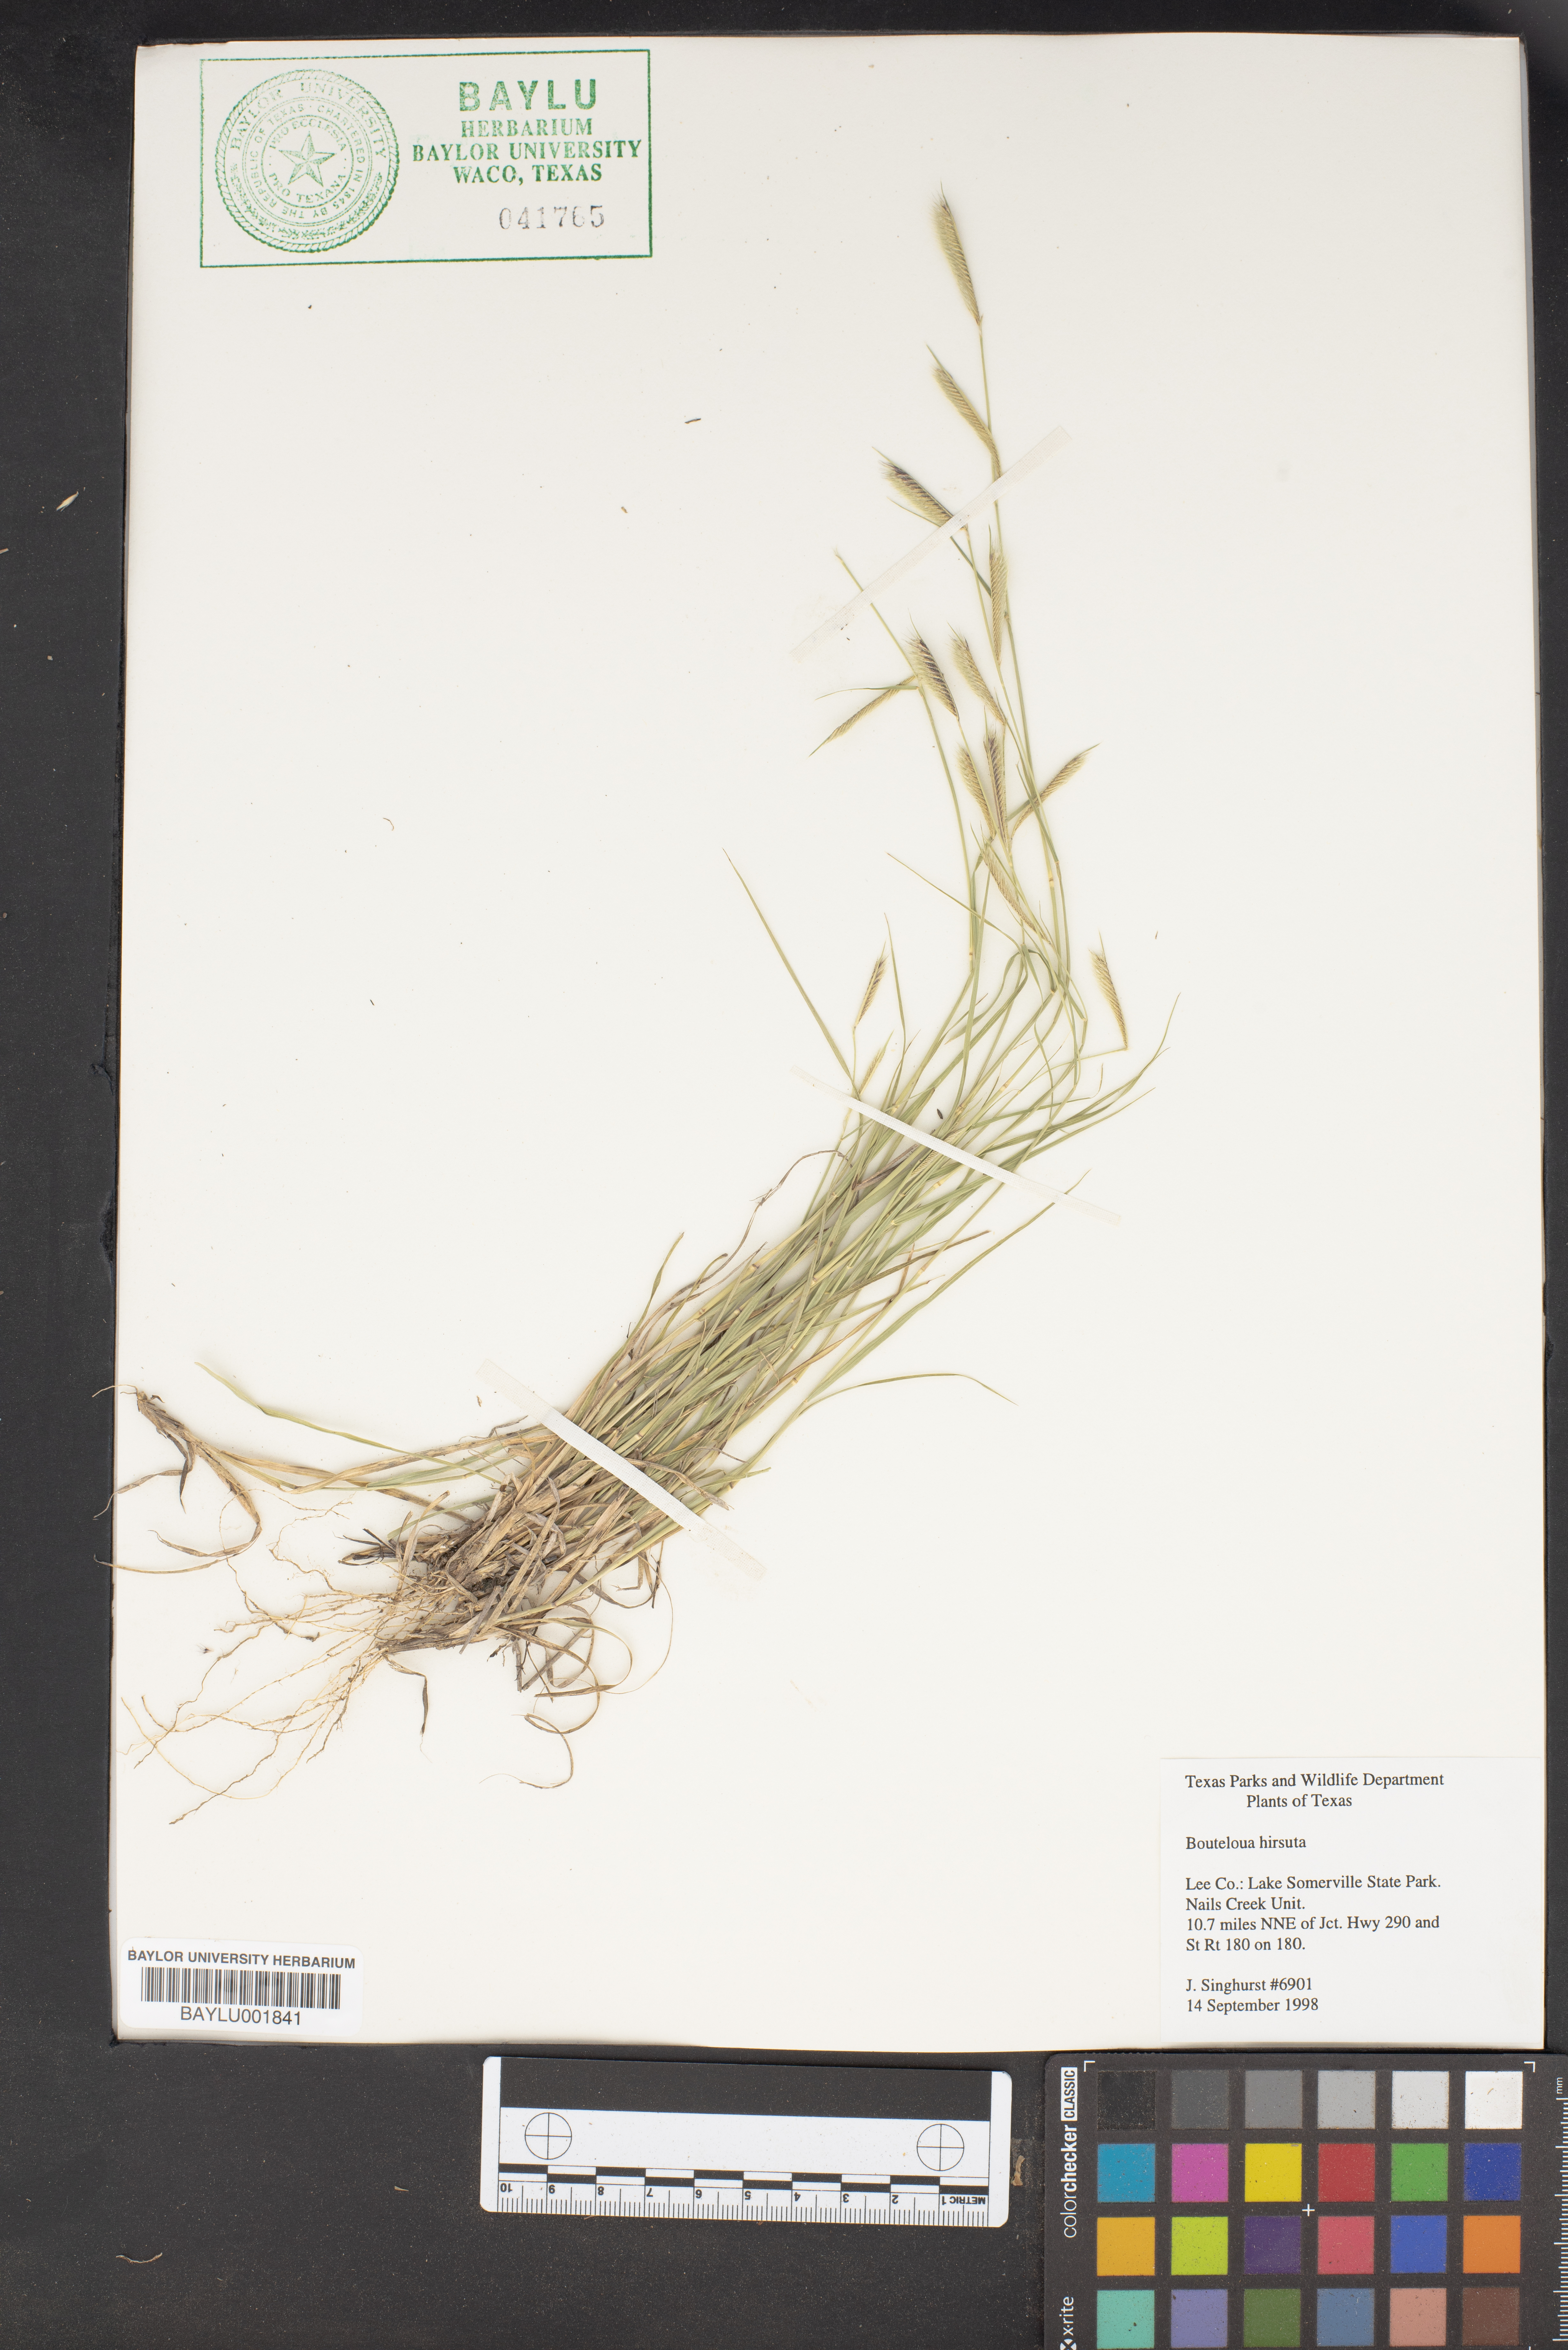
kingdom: Plantae
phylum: Tracheophyta
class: Liliopsida
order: Poales
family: Poaceae
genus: Bouteloua
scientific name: Bouteloua hirsuta
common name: Hairy grama
